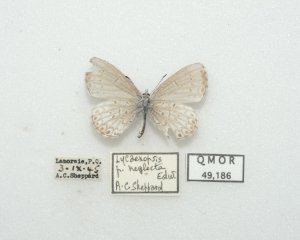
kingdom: Animalia
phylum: Arthropoda
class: Insecta
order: Lepidoptera
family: Lycaenidae
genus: Cyaniris
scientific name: Cyaniris neglecta
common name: Summer Azure
